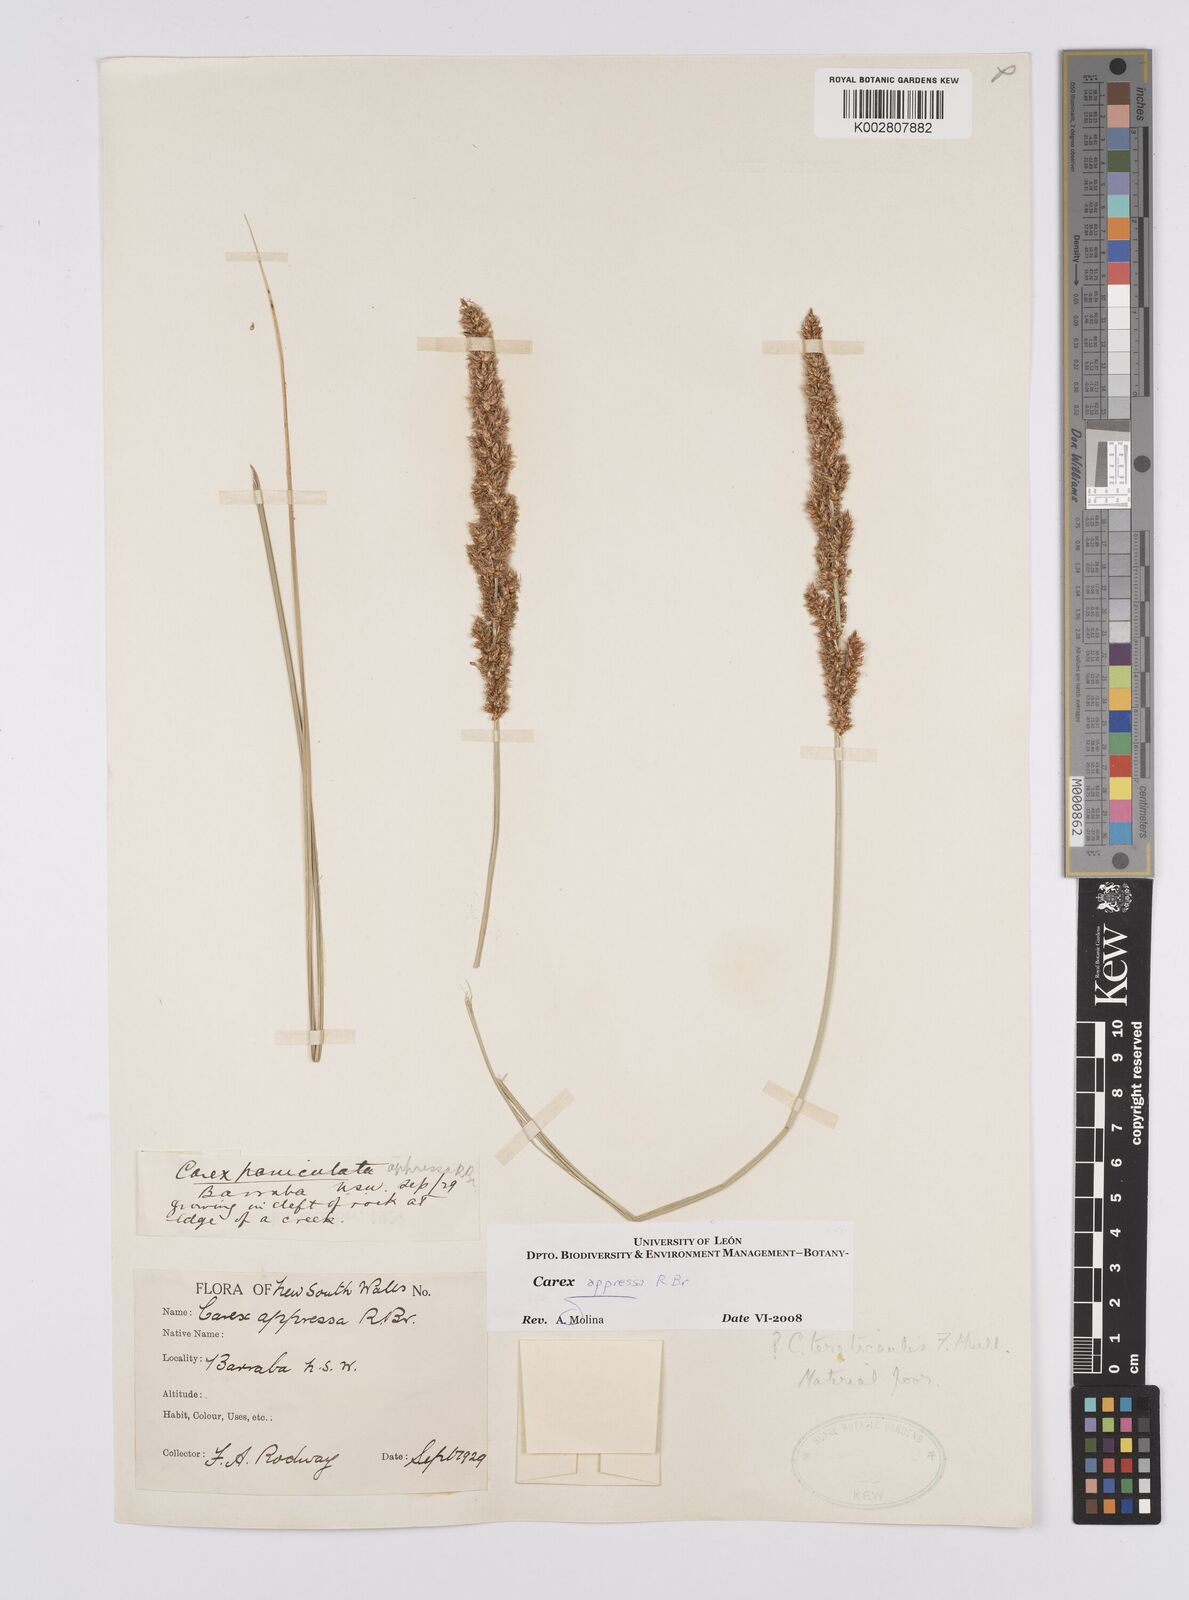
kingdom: Plantae
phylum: Tracheophyta
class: Liliopsida
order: Poales
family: Cyperaceae
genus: Carex
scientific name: Carex appressa
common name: Tussock sedge
